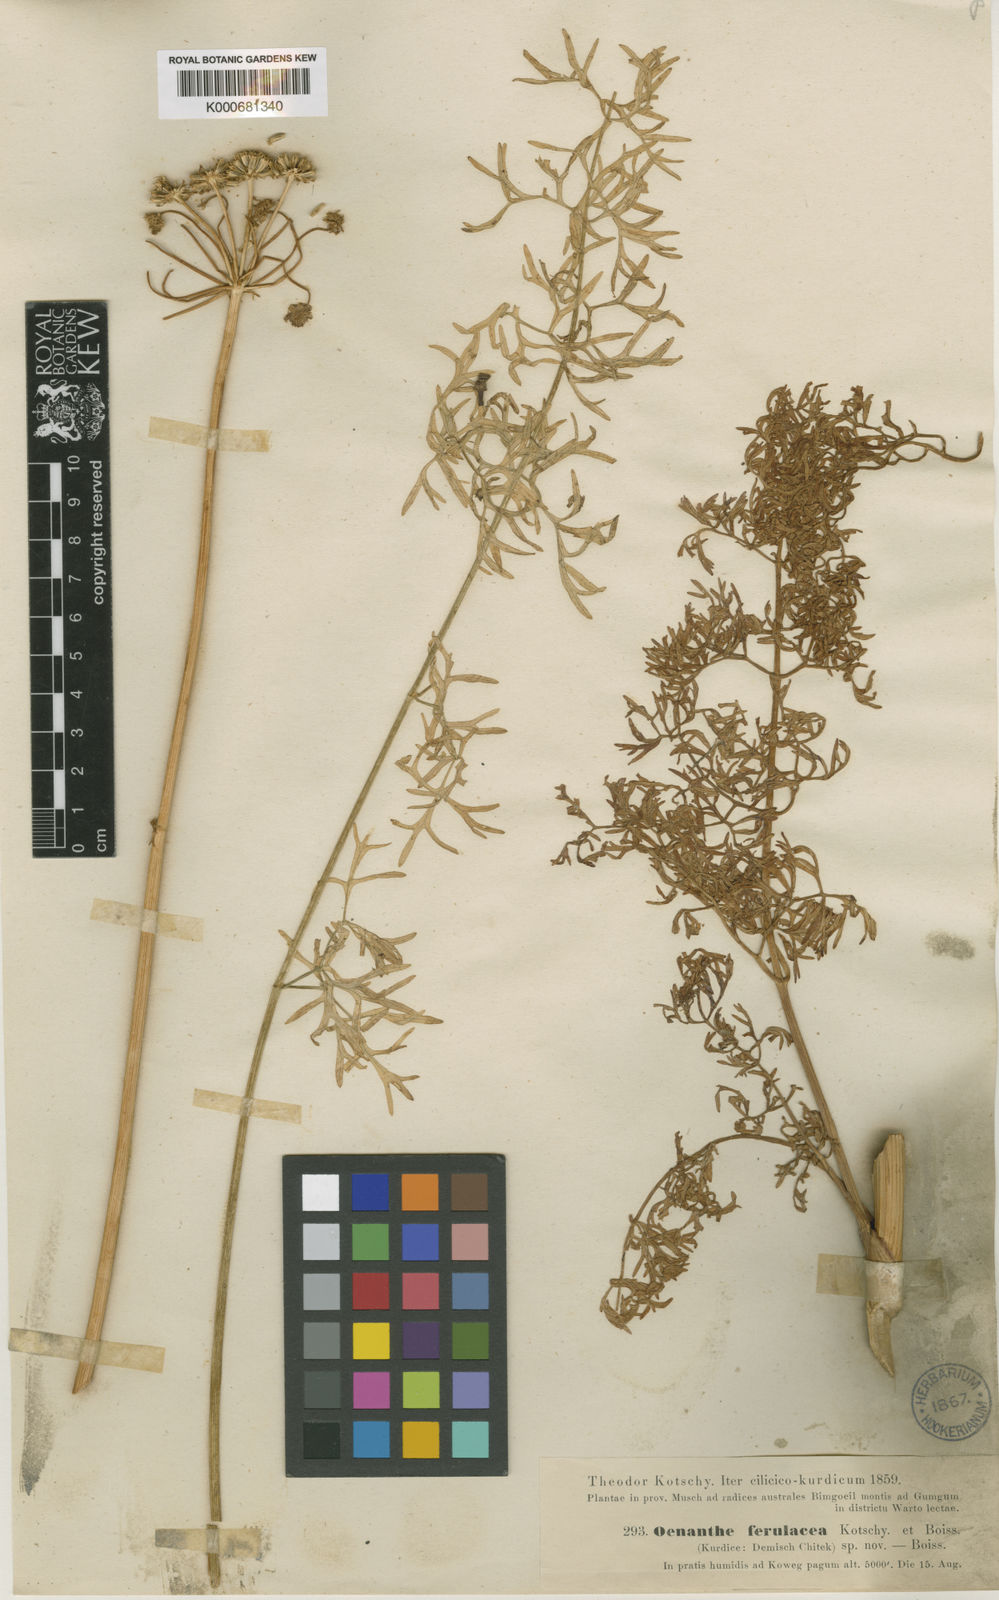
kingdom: Plantae
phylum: Tracheophyta
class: Magnoliopsida
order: Apiales
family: Apiaceae
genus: Oenanthe
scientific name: Oenanthe sophiae
